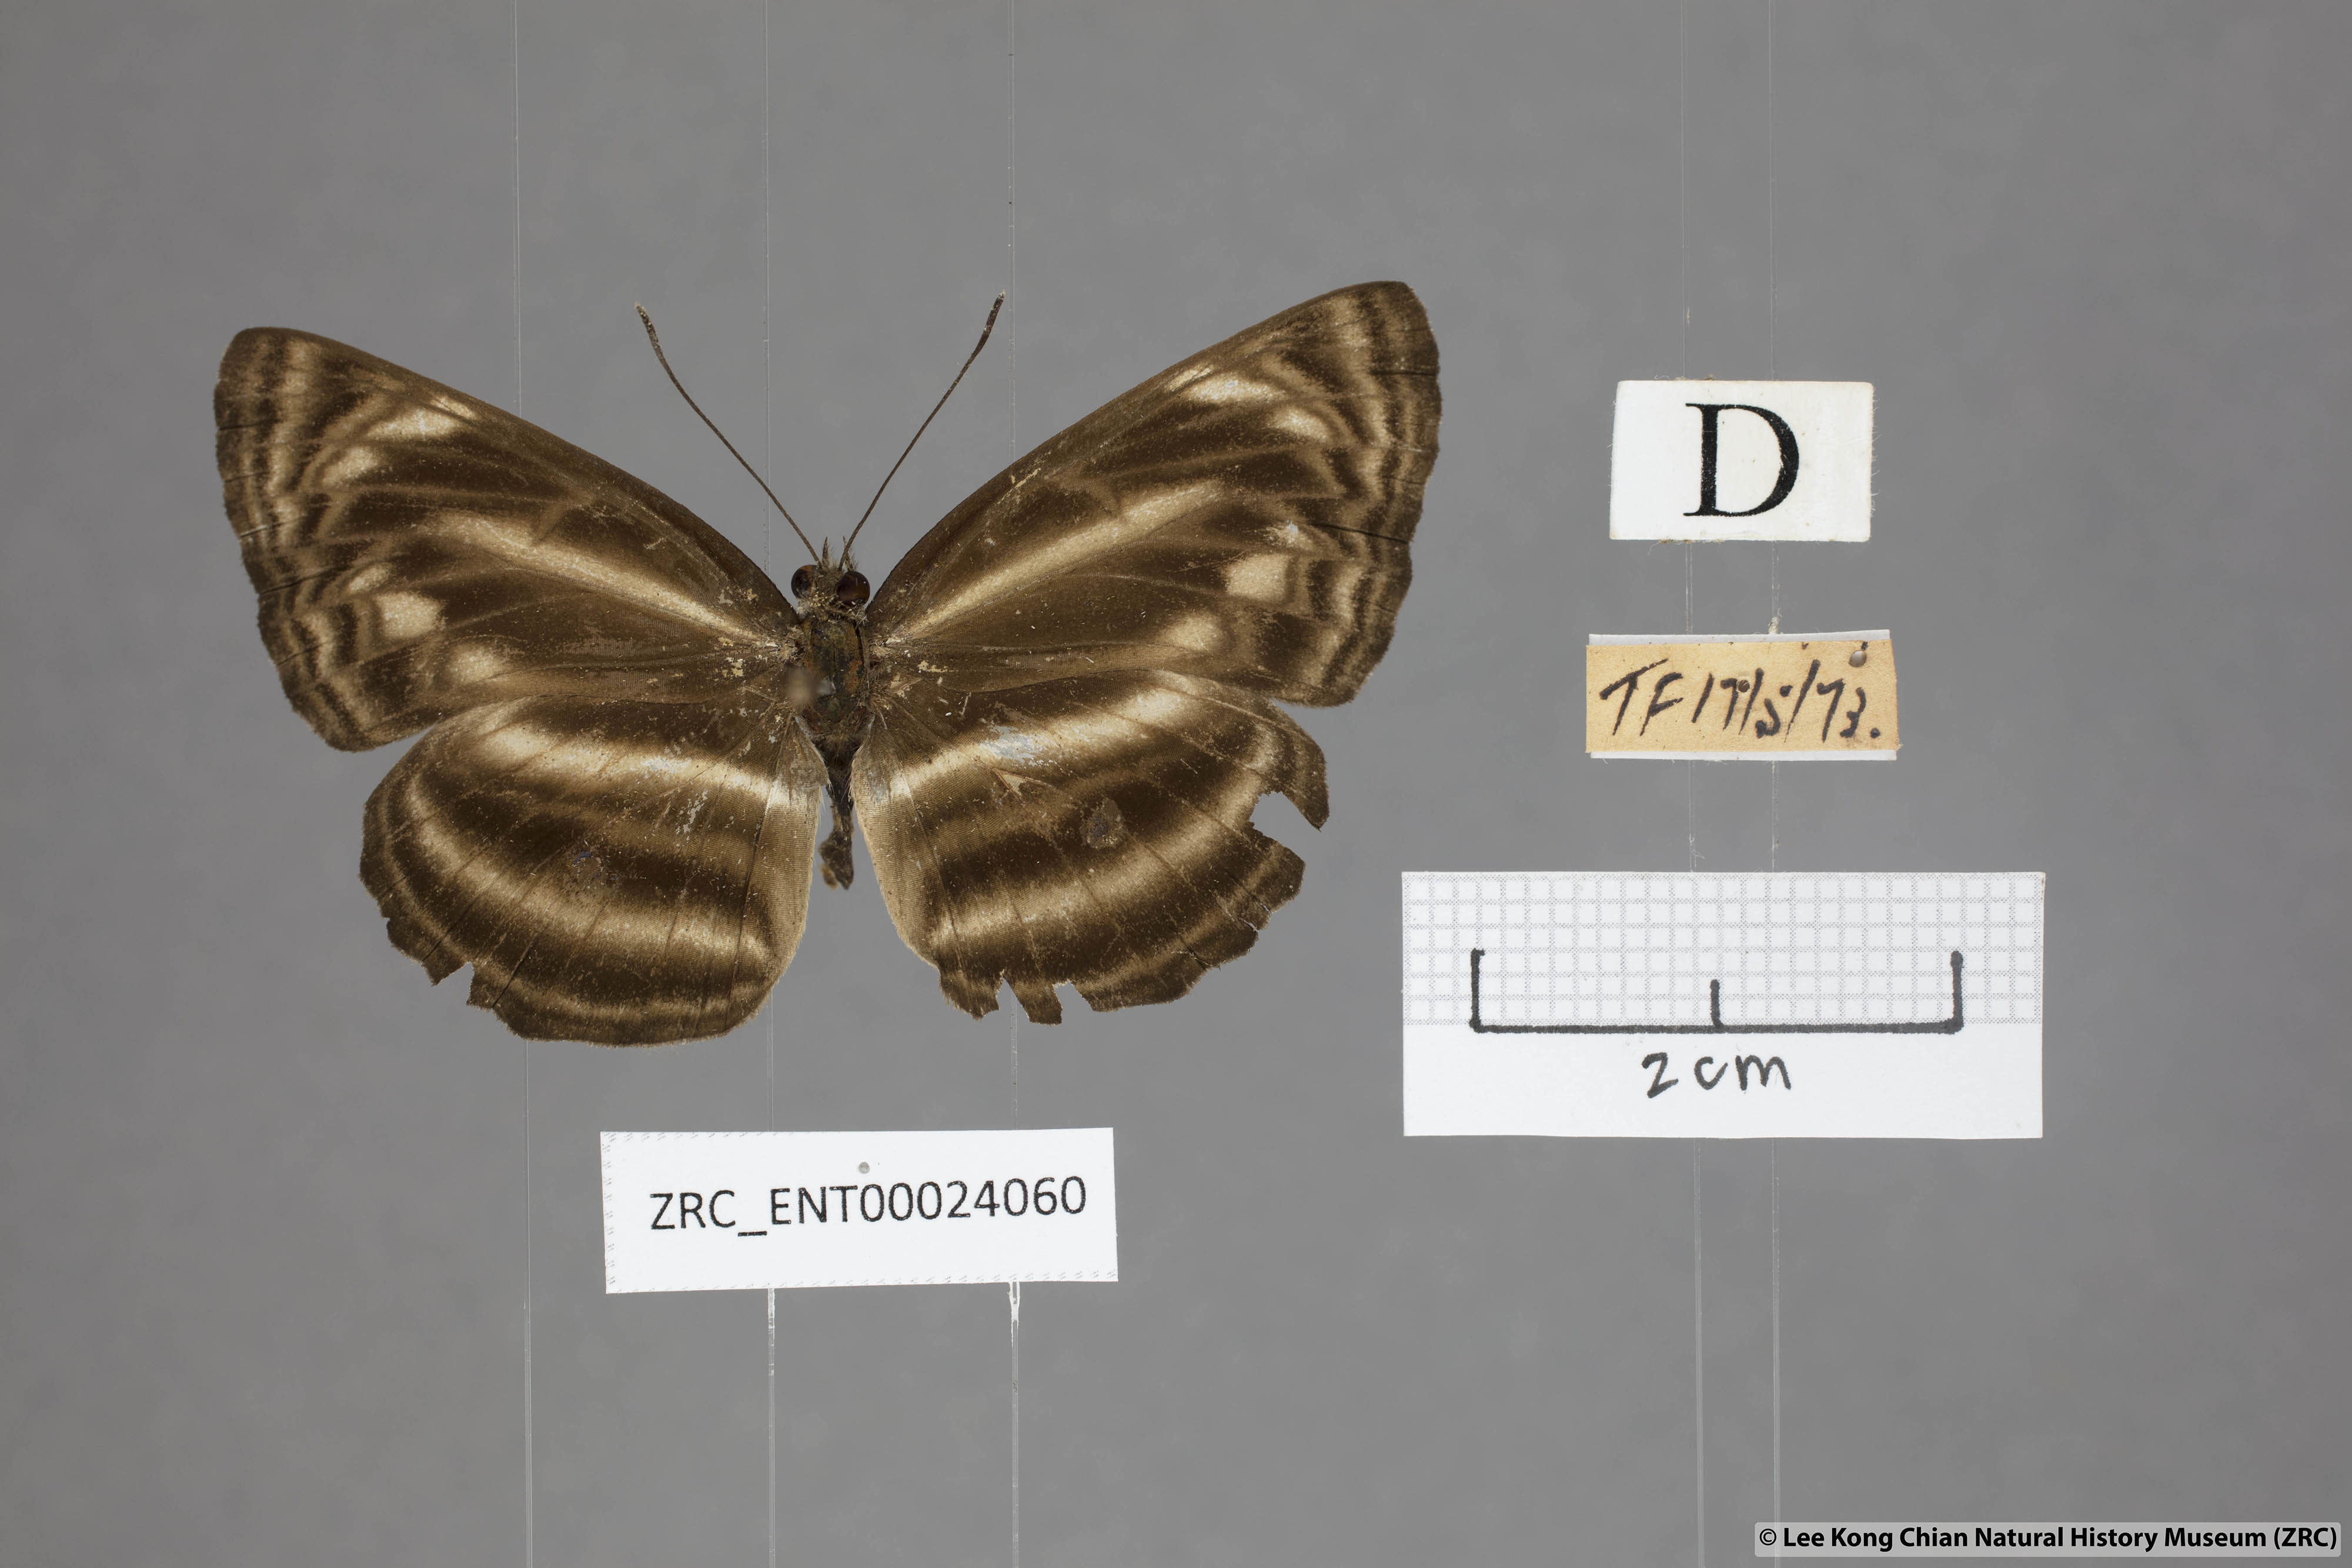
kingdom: Animalia
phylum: Arthropoda
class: Insecta
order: Lepidoptera
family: Nymphalidae
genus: Neptis
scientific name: Neptis omeroda
